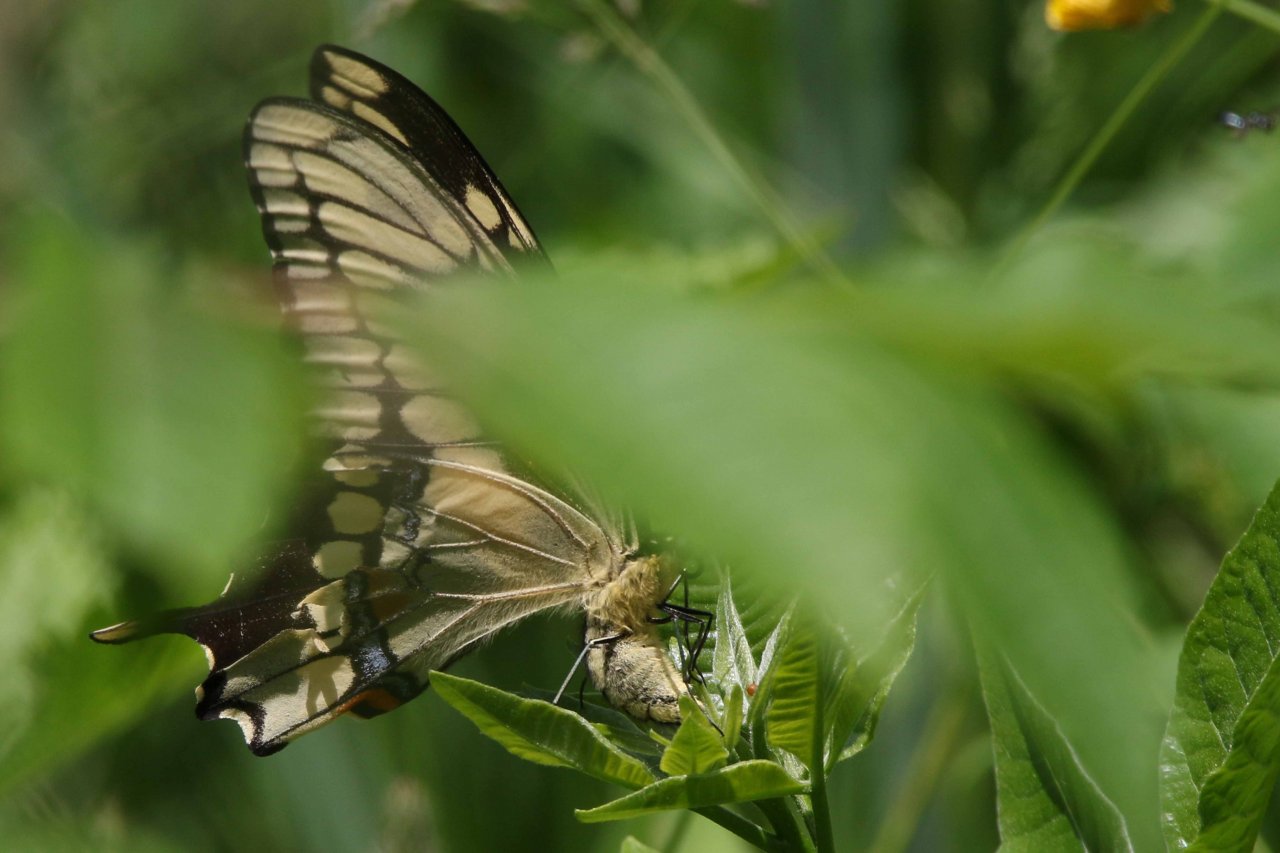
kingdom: Animalia
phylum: Arthropoda
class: Insecta
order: Lepidoptera
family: Papilionidae
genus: Papilio
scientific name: Papilio cresphontes
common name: Eastern Giant Swallowtail
